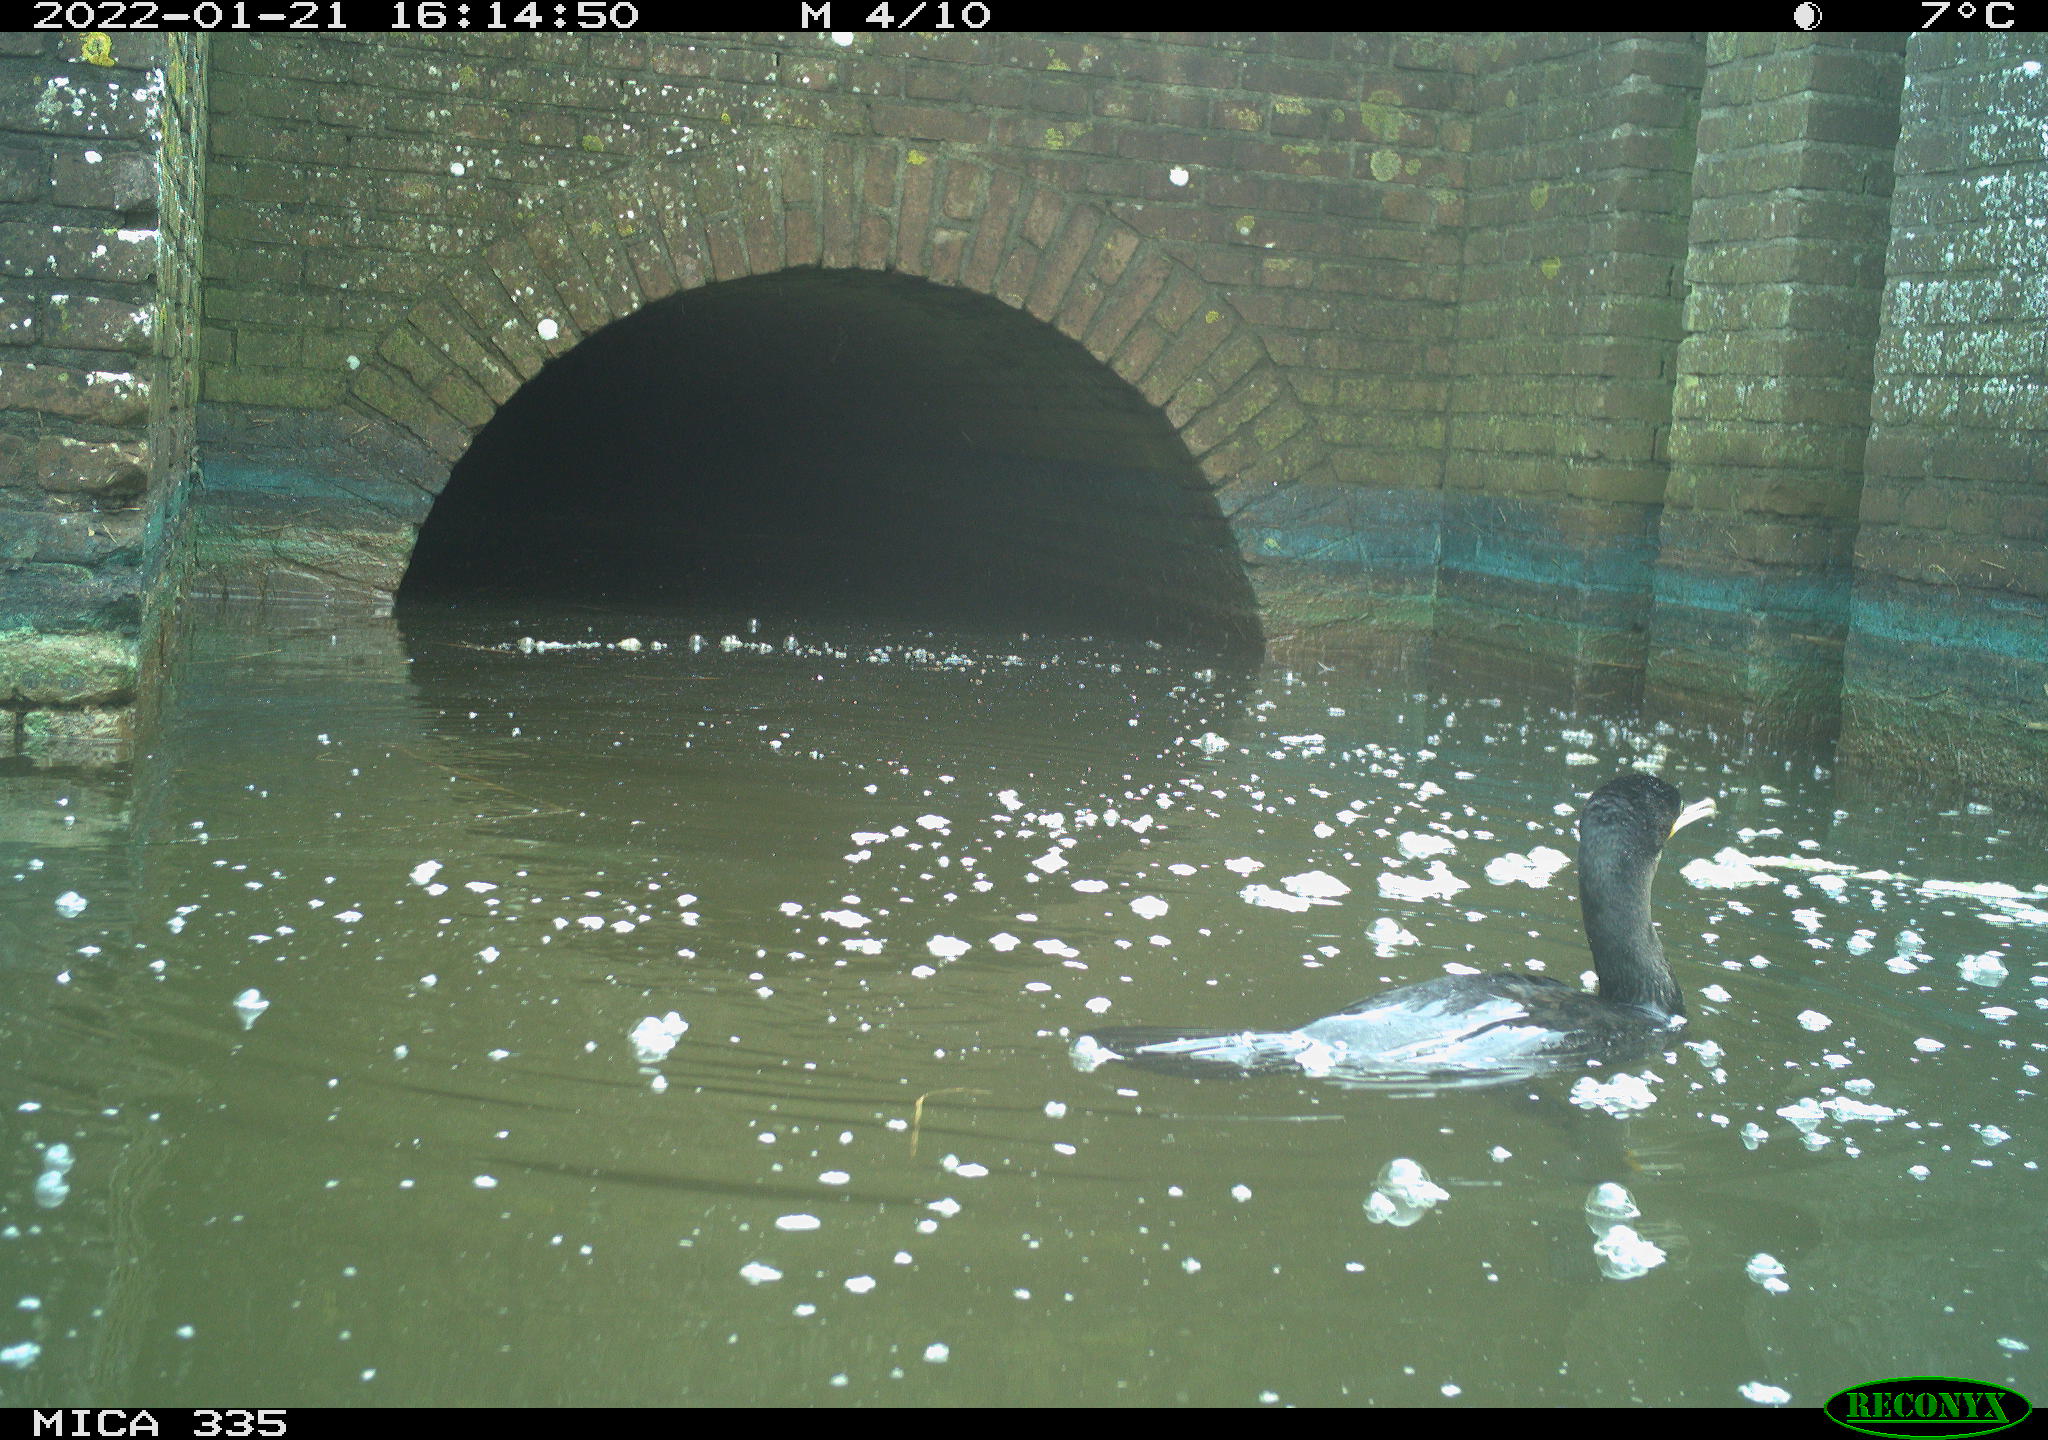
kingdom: Animalia
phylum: Chordata
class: Aves
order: Suliformes
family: Phalacrocoracidae
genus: Phalacrocorax
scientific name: Phalacrocorax carbo
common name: Great cormorant
